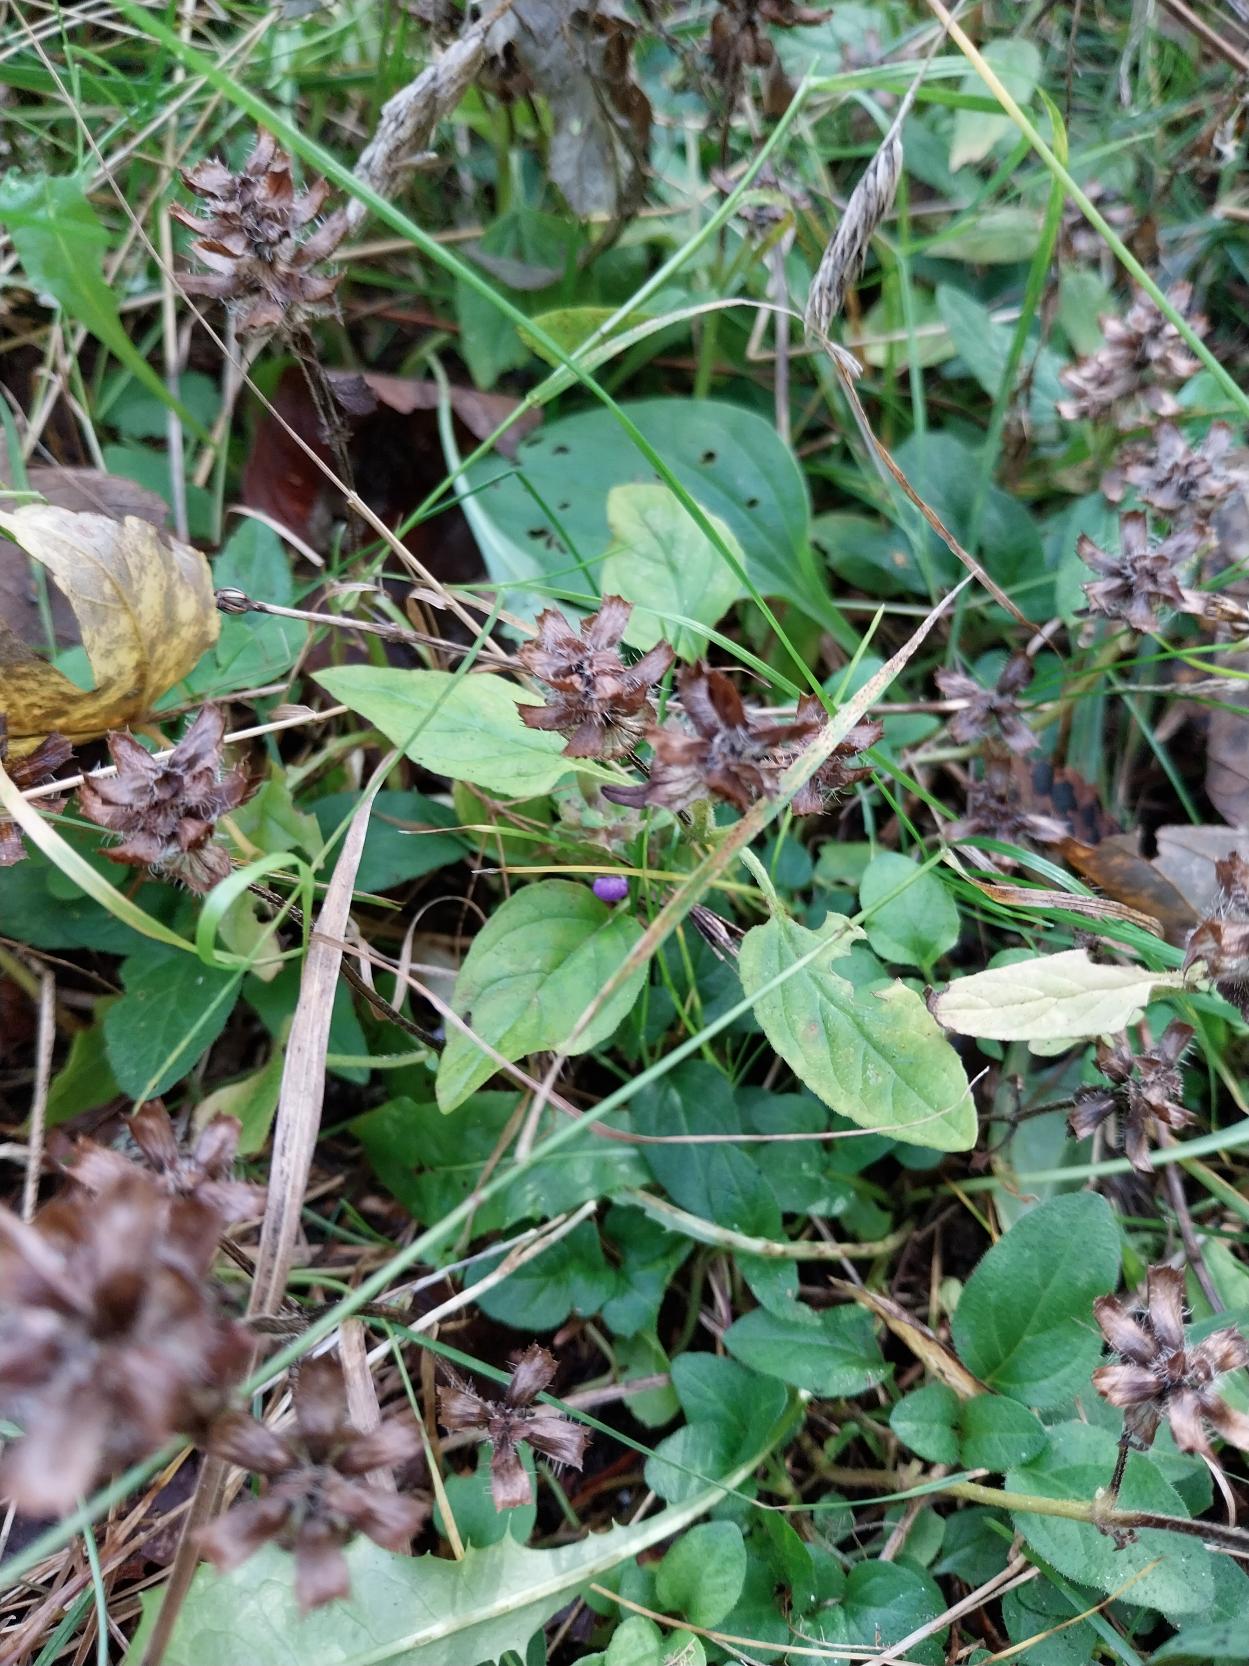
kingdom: Plantae
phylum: Tracheophyta
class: Magnoliopsida
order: Lamiales
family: Lamiaceae
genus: Prunella
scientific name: Prunella vulgaris
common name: Almindelig brunelle
